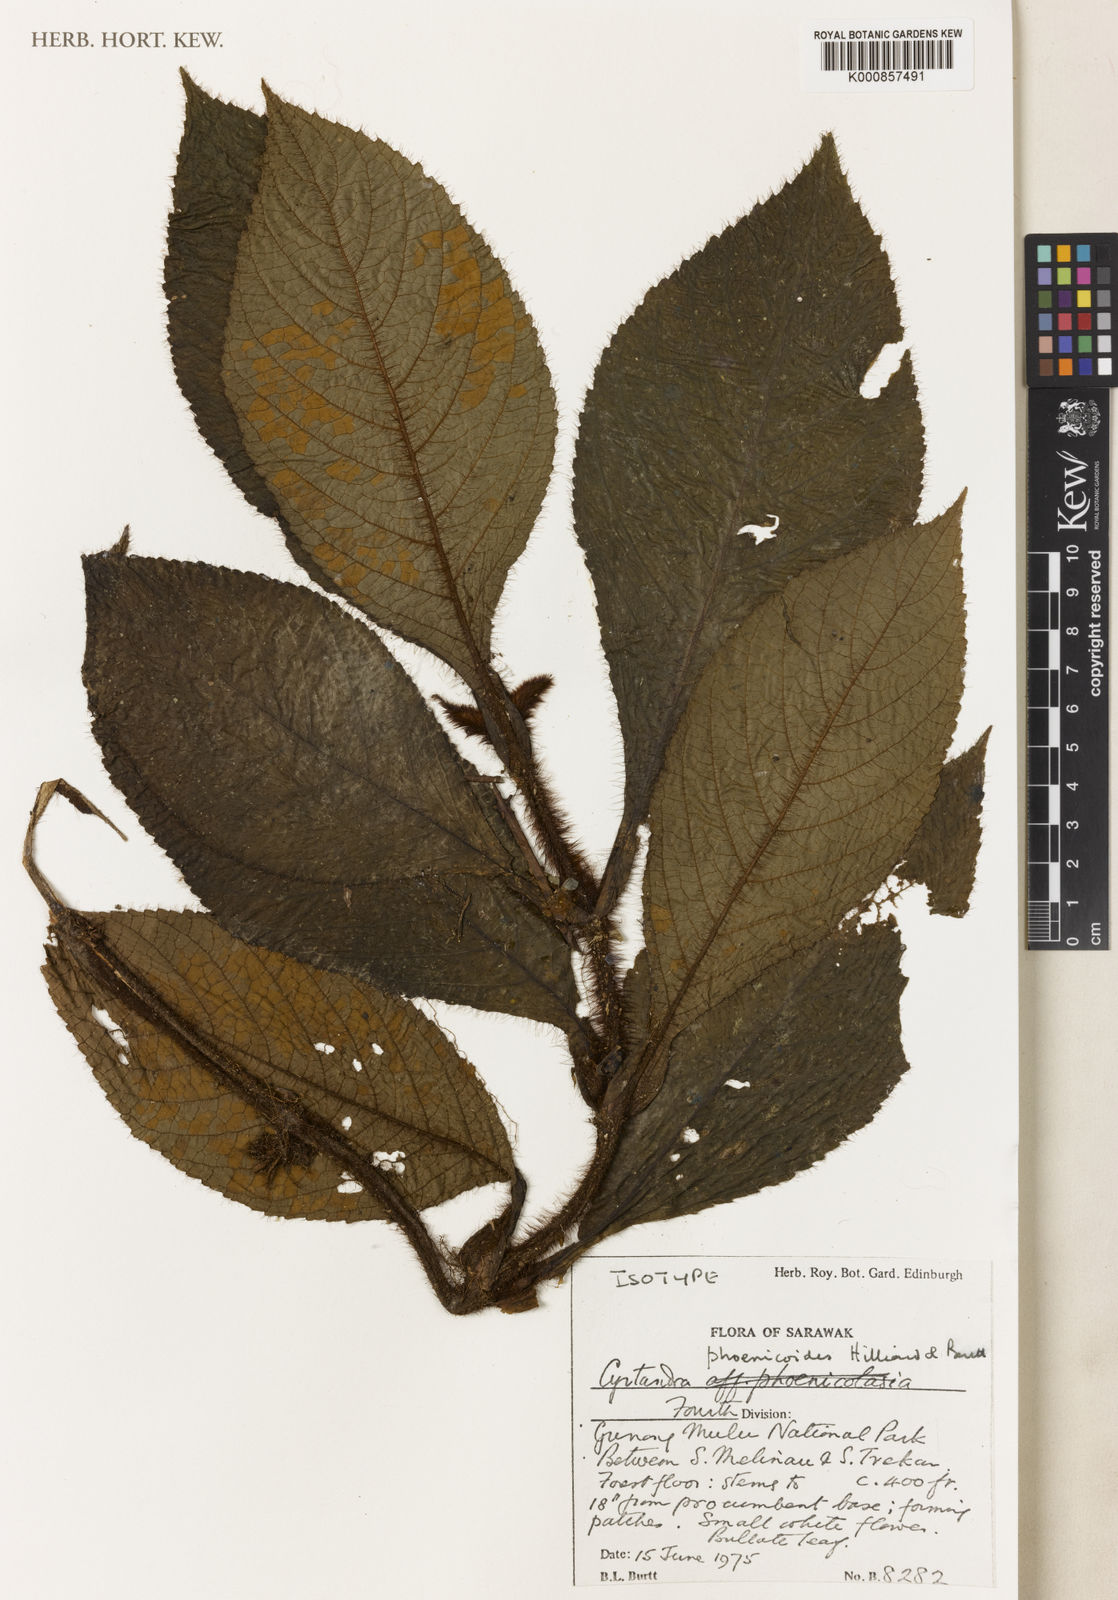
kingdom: Plantae
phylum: Tracheophyta
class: Magnoliopsida
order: Lamiales
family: Gesneriaceae
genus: Cyrtandra
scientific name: Cyrtandra phoenicoides
